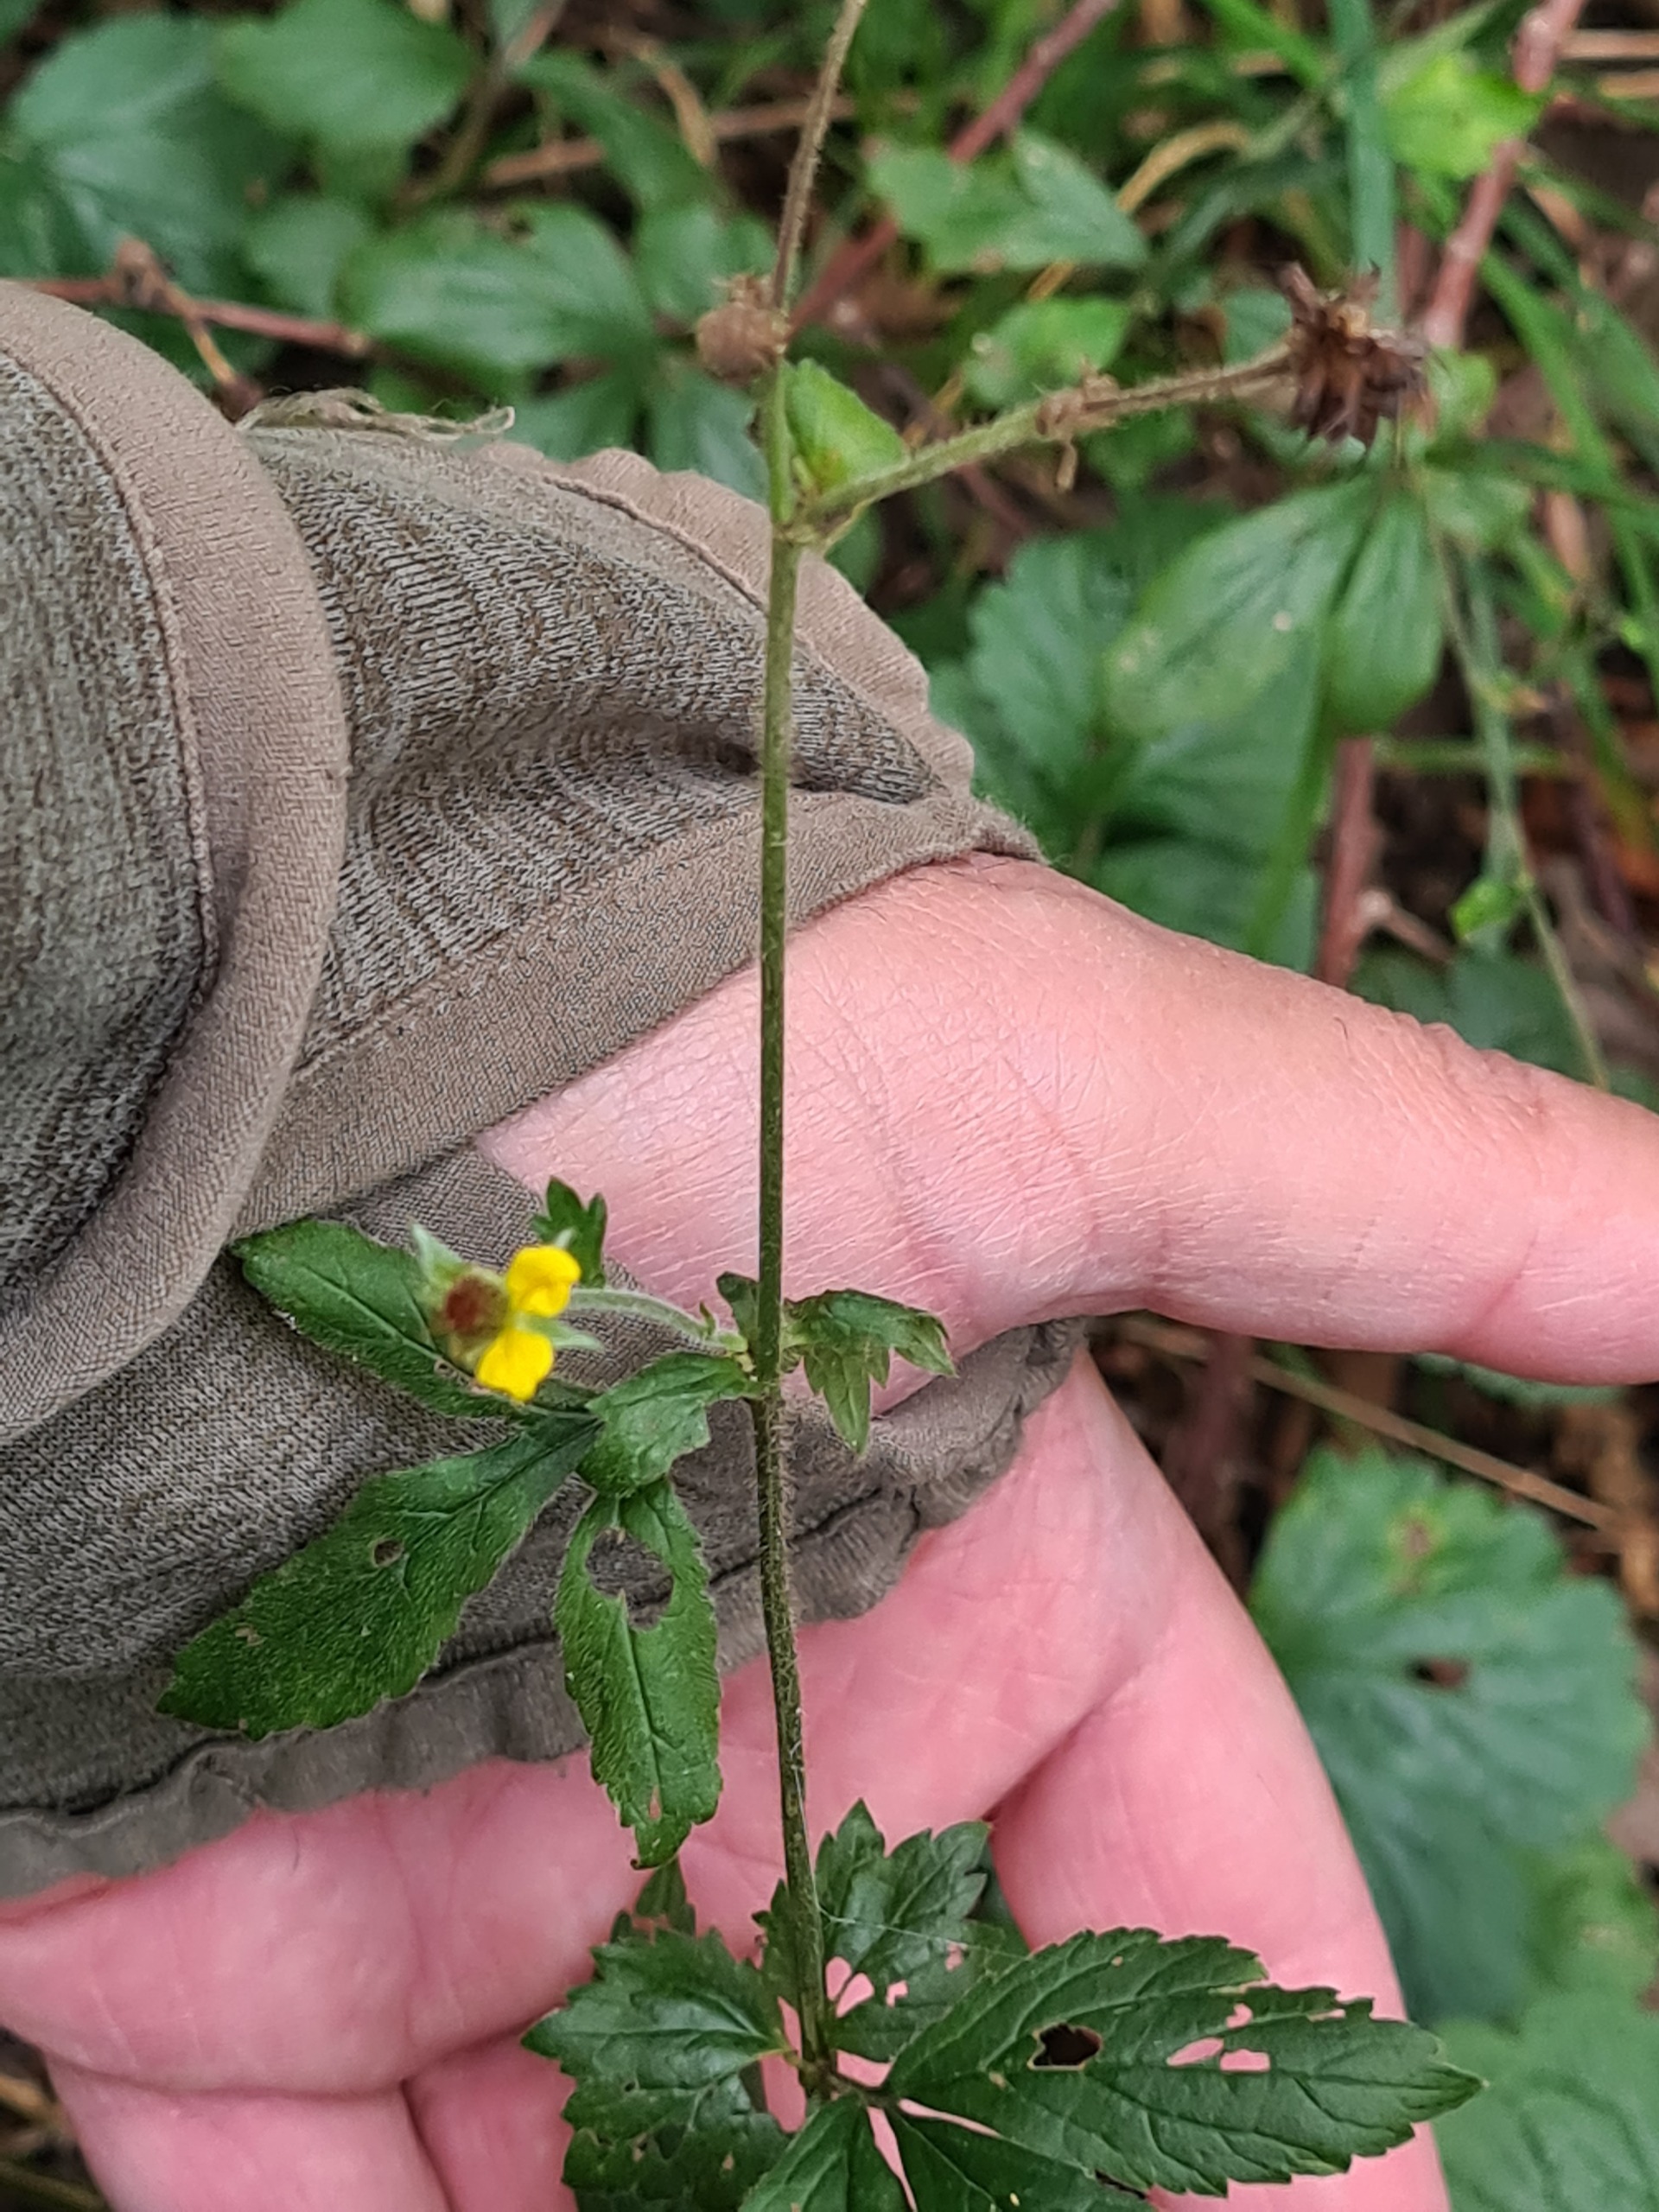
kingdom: Plantae
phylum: Tracheophyta
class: Magnoliopsida
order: Rosales
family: Rosaceae
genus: Geum
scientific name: Geum urbanum
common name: Feber-nellikerod
